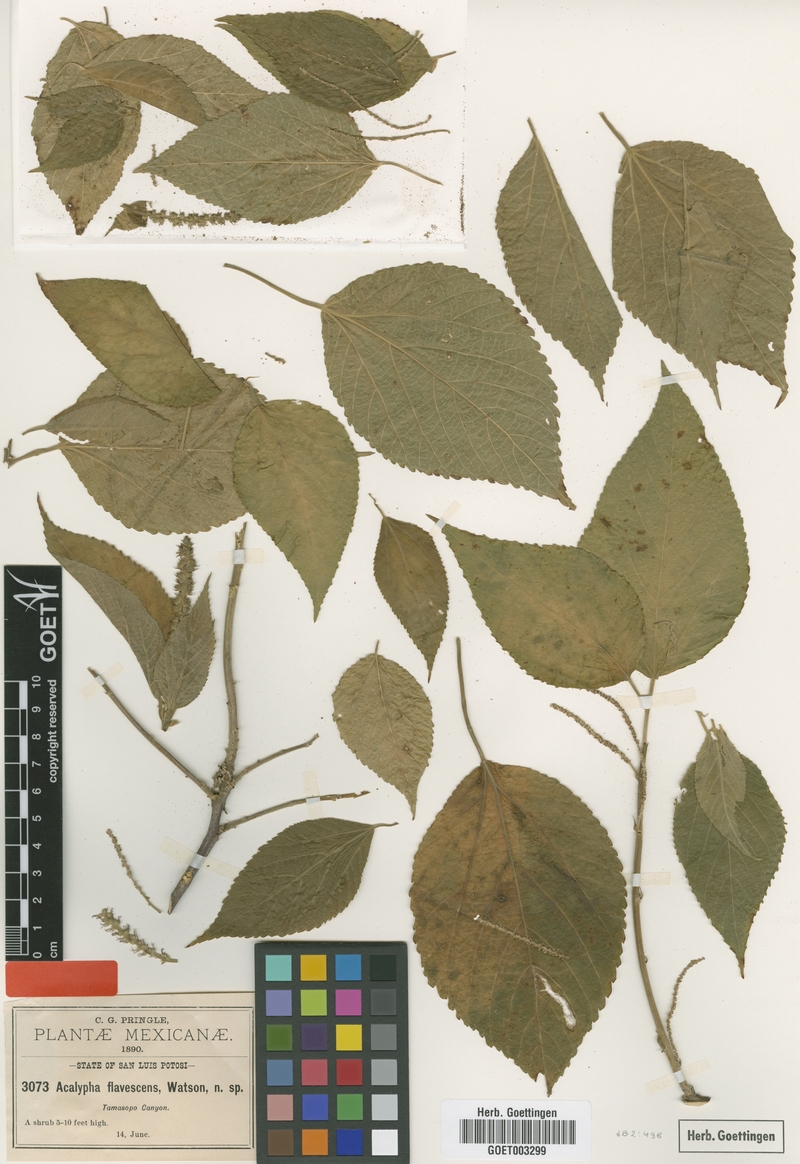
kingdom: Plantae
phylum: Tracheophyta
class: Magnoliopsida
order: Malpighiales
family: Euphorbiaceae
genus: Acalypha
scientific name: Acalypha flavescens
